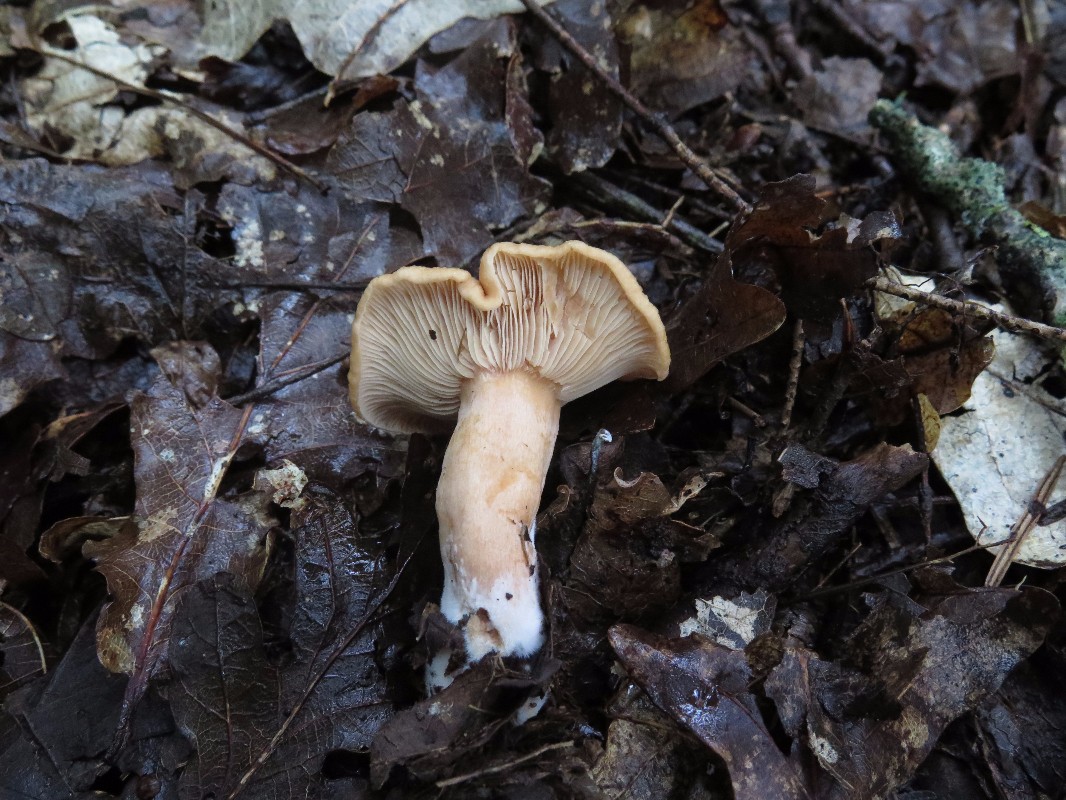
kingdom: Fungi
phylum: Basidiomycota
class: Agaricomycetes
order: Russulales
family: Russulaceae
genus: Lactarius
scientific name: Lactarius
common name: mælkehat
